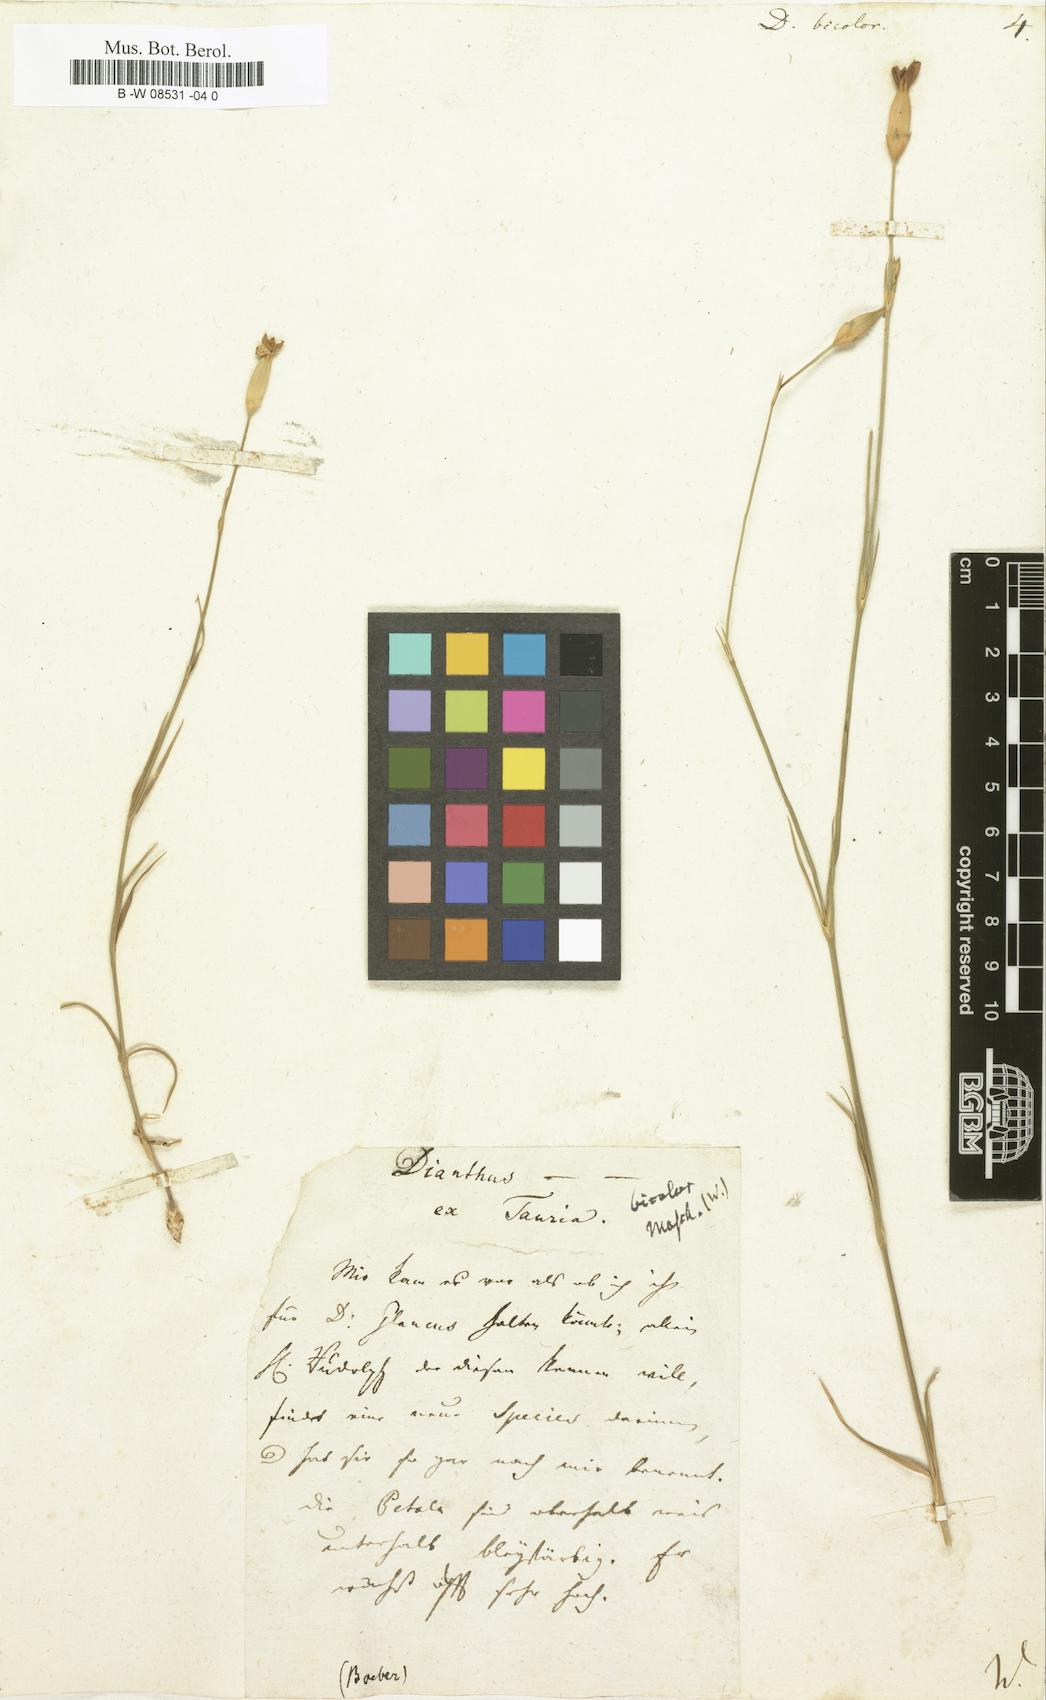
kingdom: Plantae
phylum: Tracheophyta
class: Magnoliopsida
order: Caryophyllales
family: Caryophyllaceae
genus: Dianthus
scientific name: Dianthus bicolor
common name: Bicolour pink
